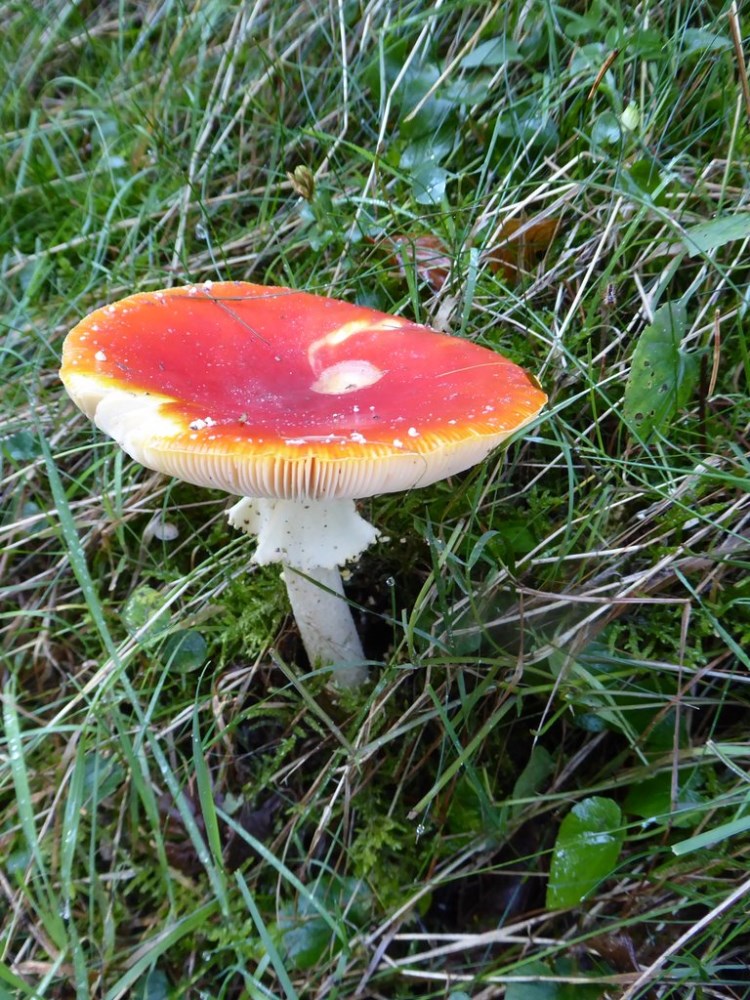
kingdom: Fungi
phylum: Basidiomycota
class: Agaricomycetes
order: Agaricales
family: Amanitaceae
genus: Amanita
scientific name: Amanita muscaria
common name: rød fluesvamp
